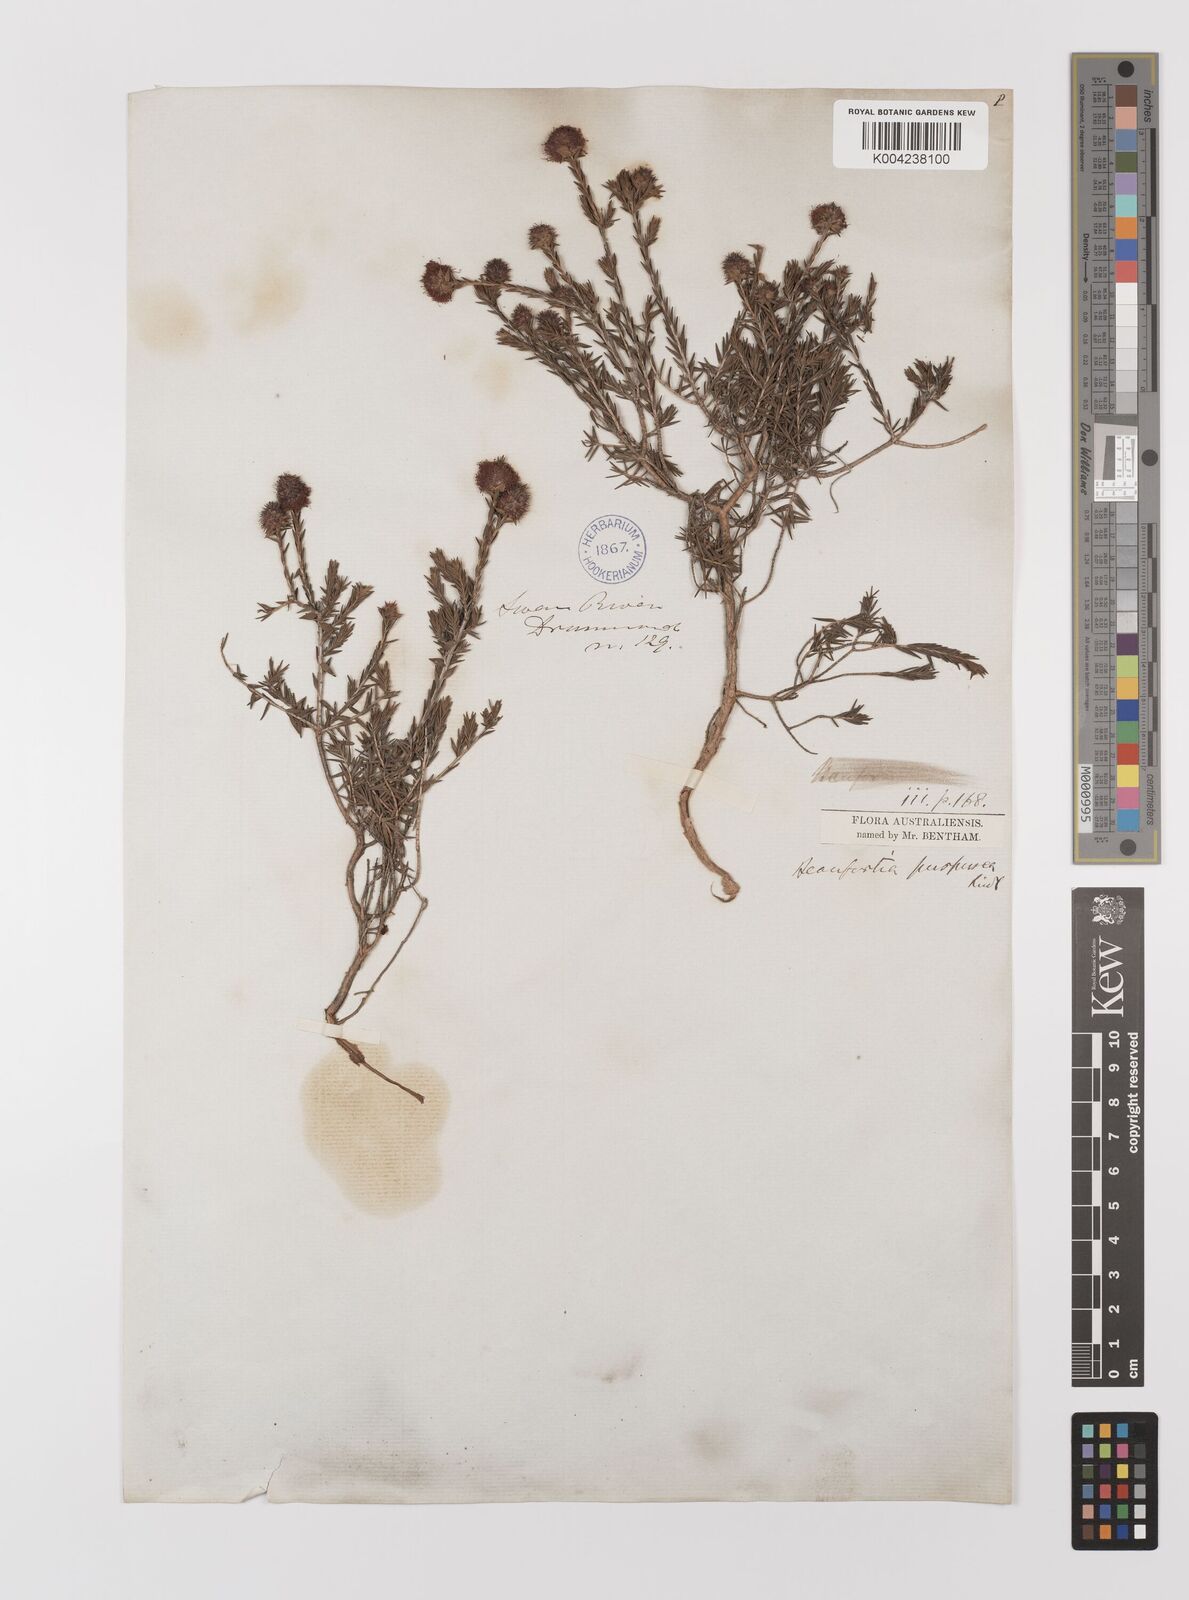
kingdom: Plantae
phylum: Tracheophyta
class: Magnoliopsida
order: Myrtales
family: Myrtaceae
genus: Melaleuca
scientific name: Melaleuca purpurea
